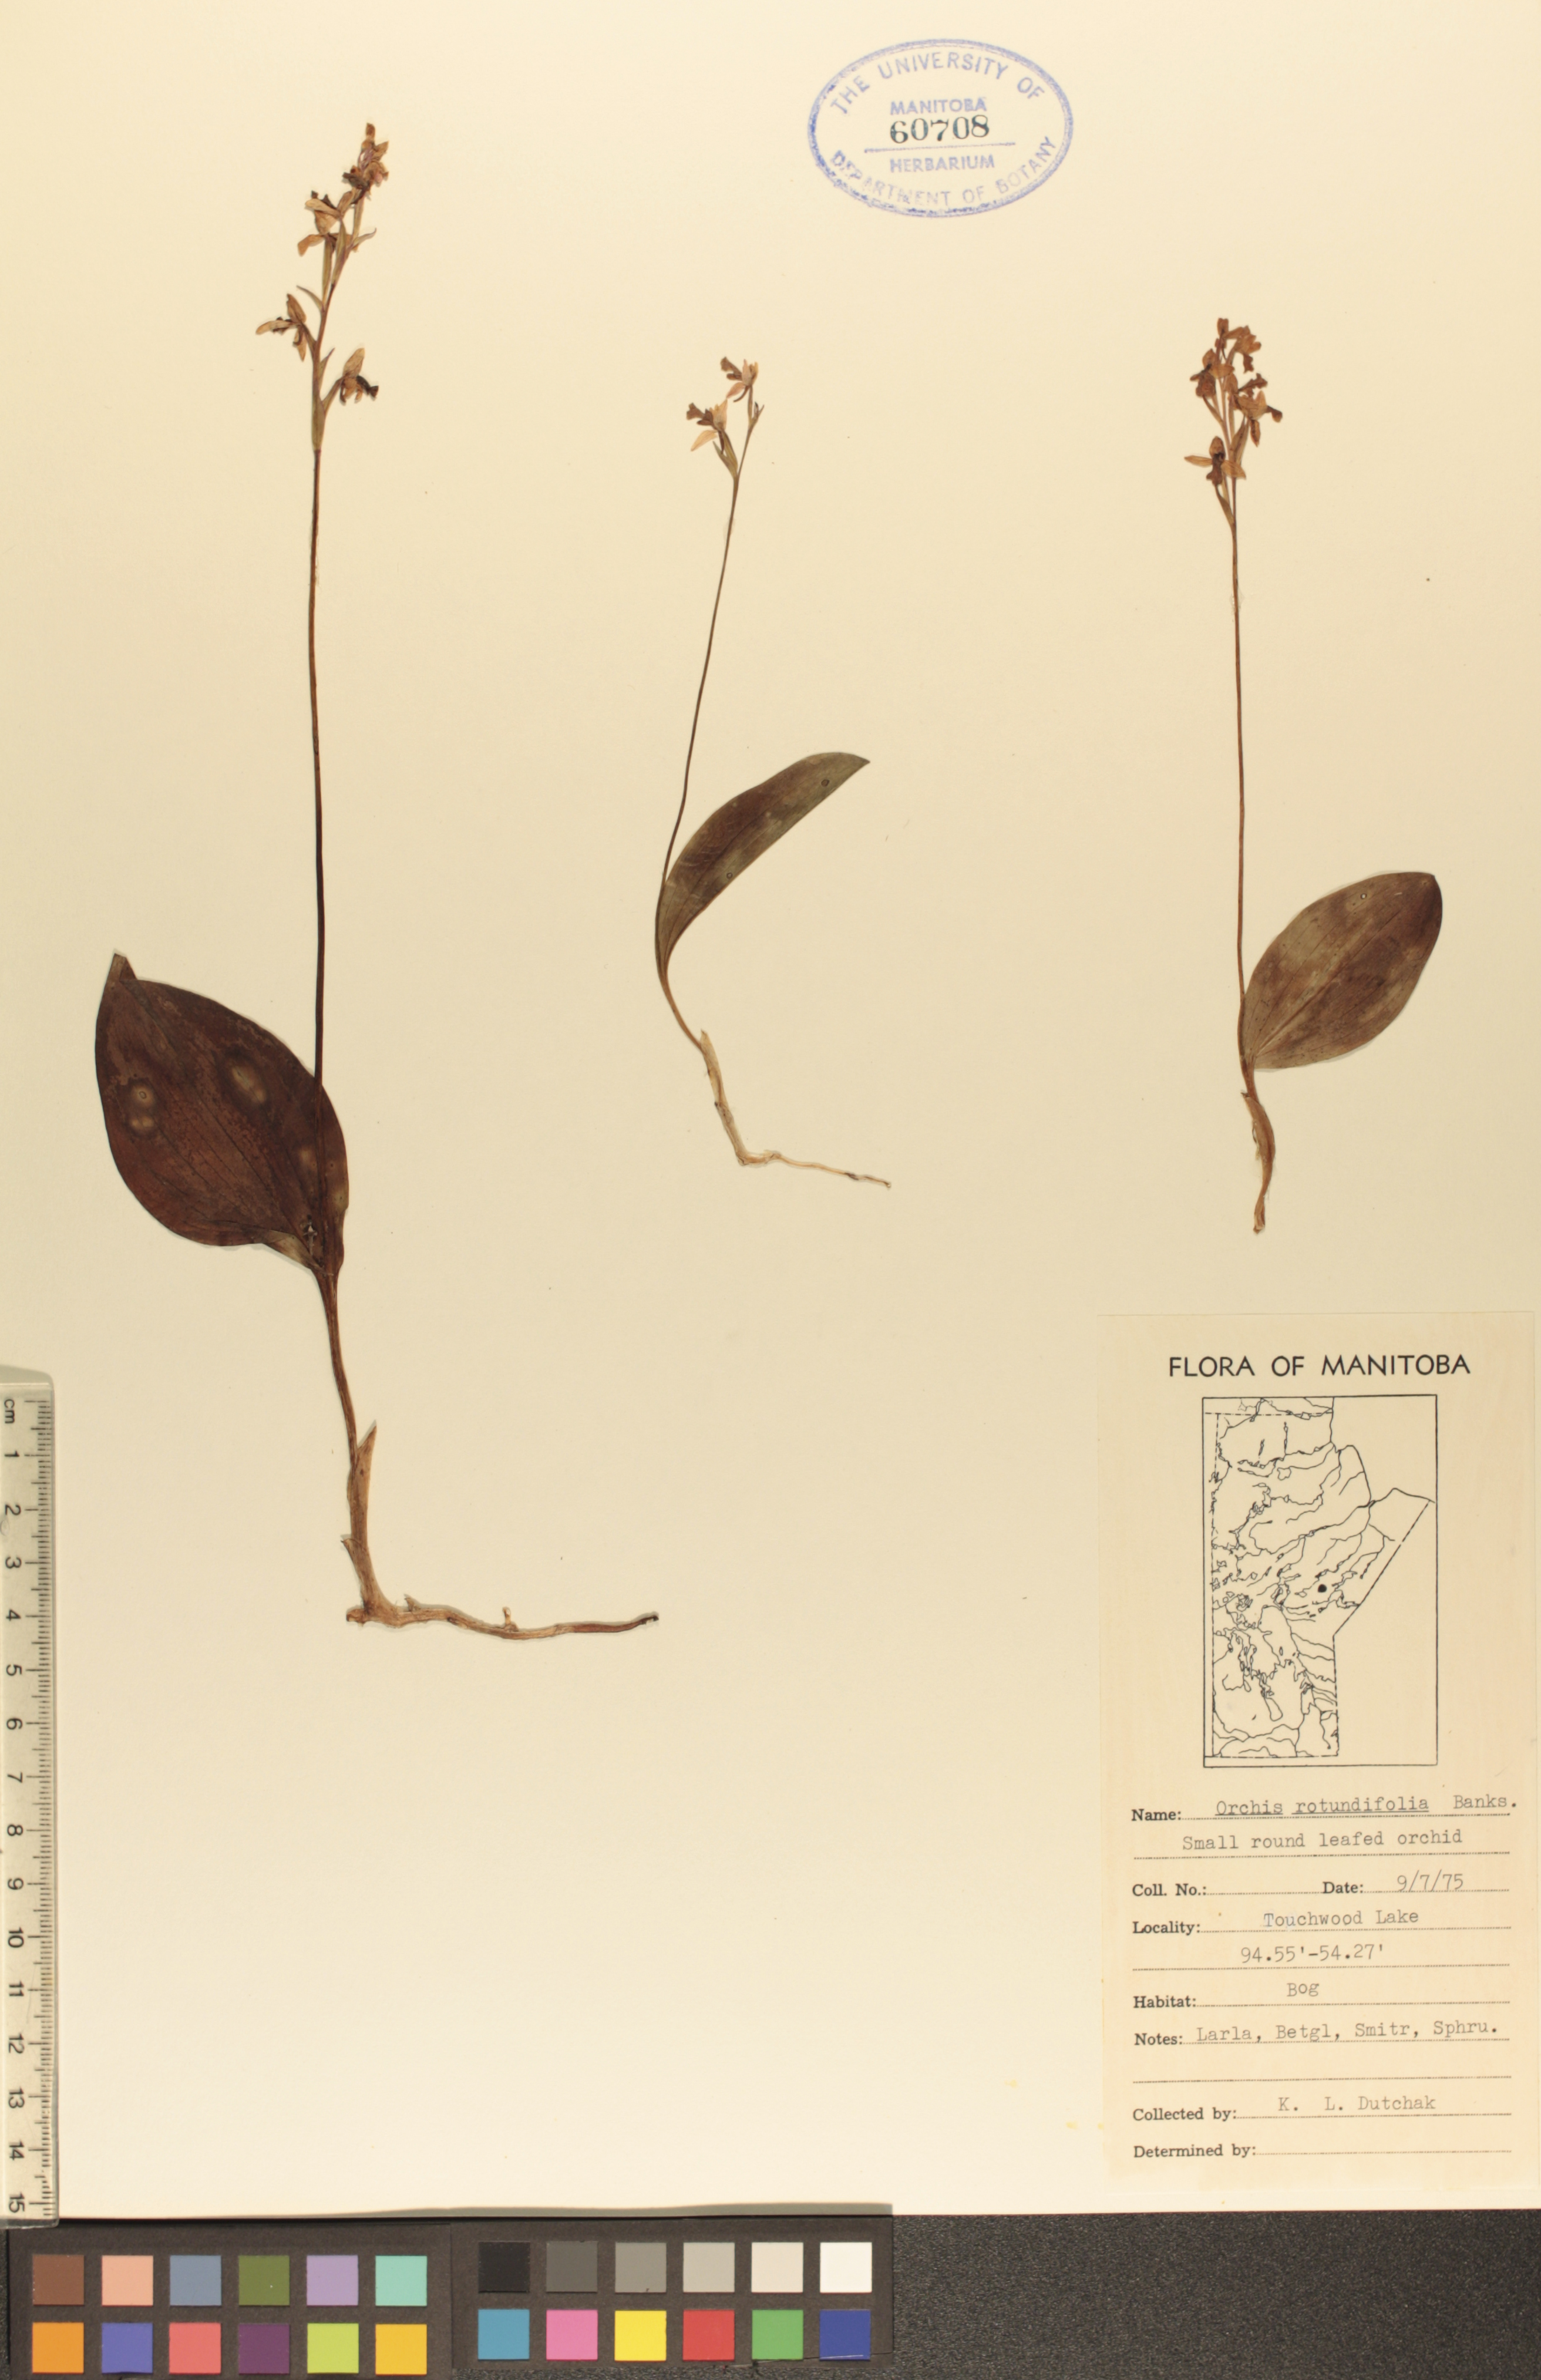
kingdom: Plantae
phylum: Tracheophyta
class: Liliopsida
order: Asparagales
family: Orchidaceae
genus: Galearis
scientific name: Galearis rotundifolia
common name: One-leaved orchis
